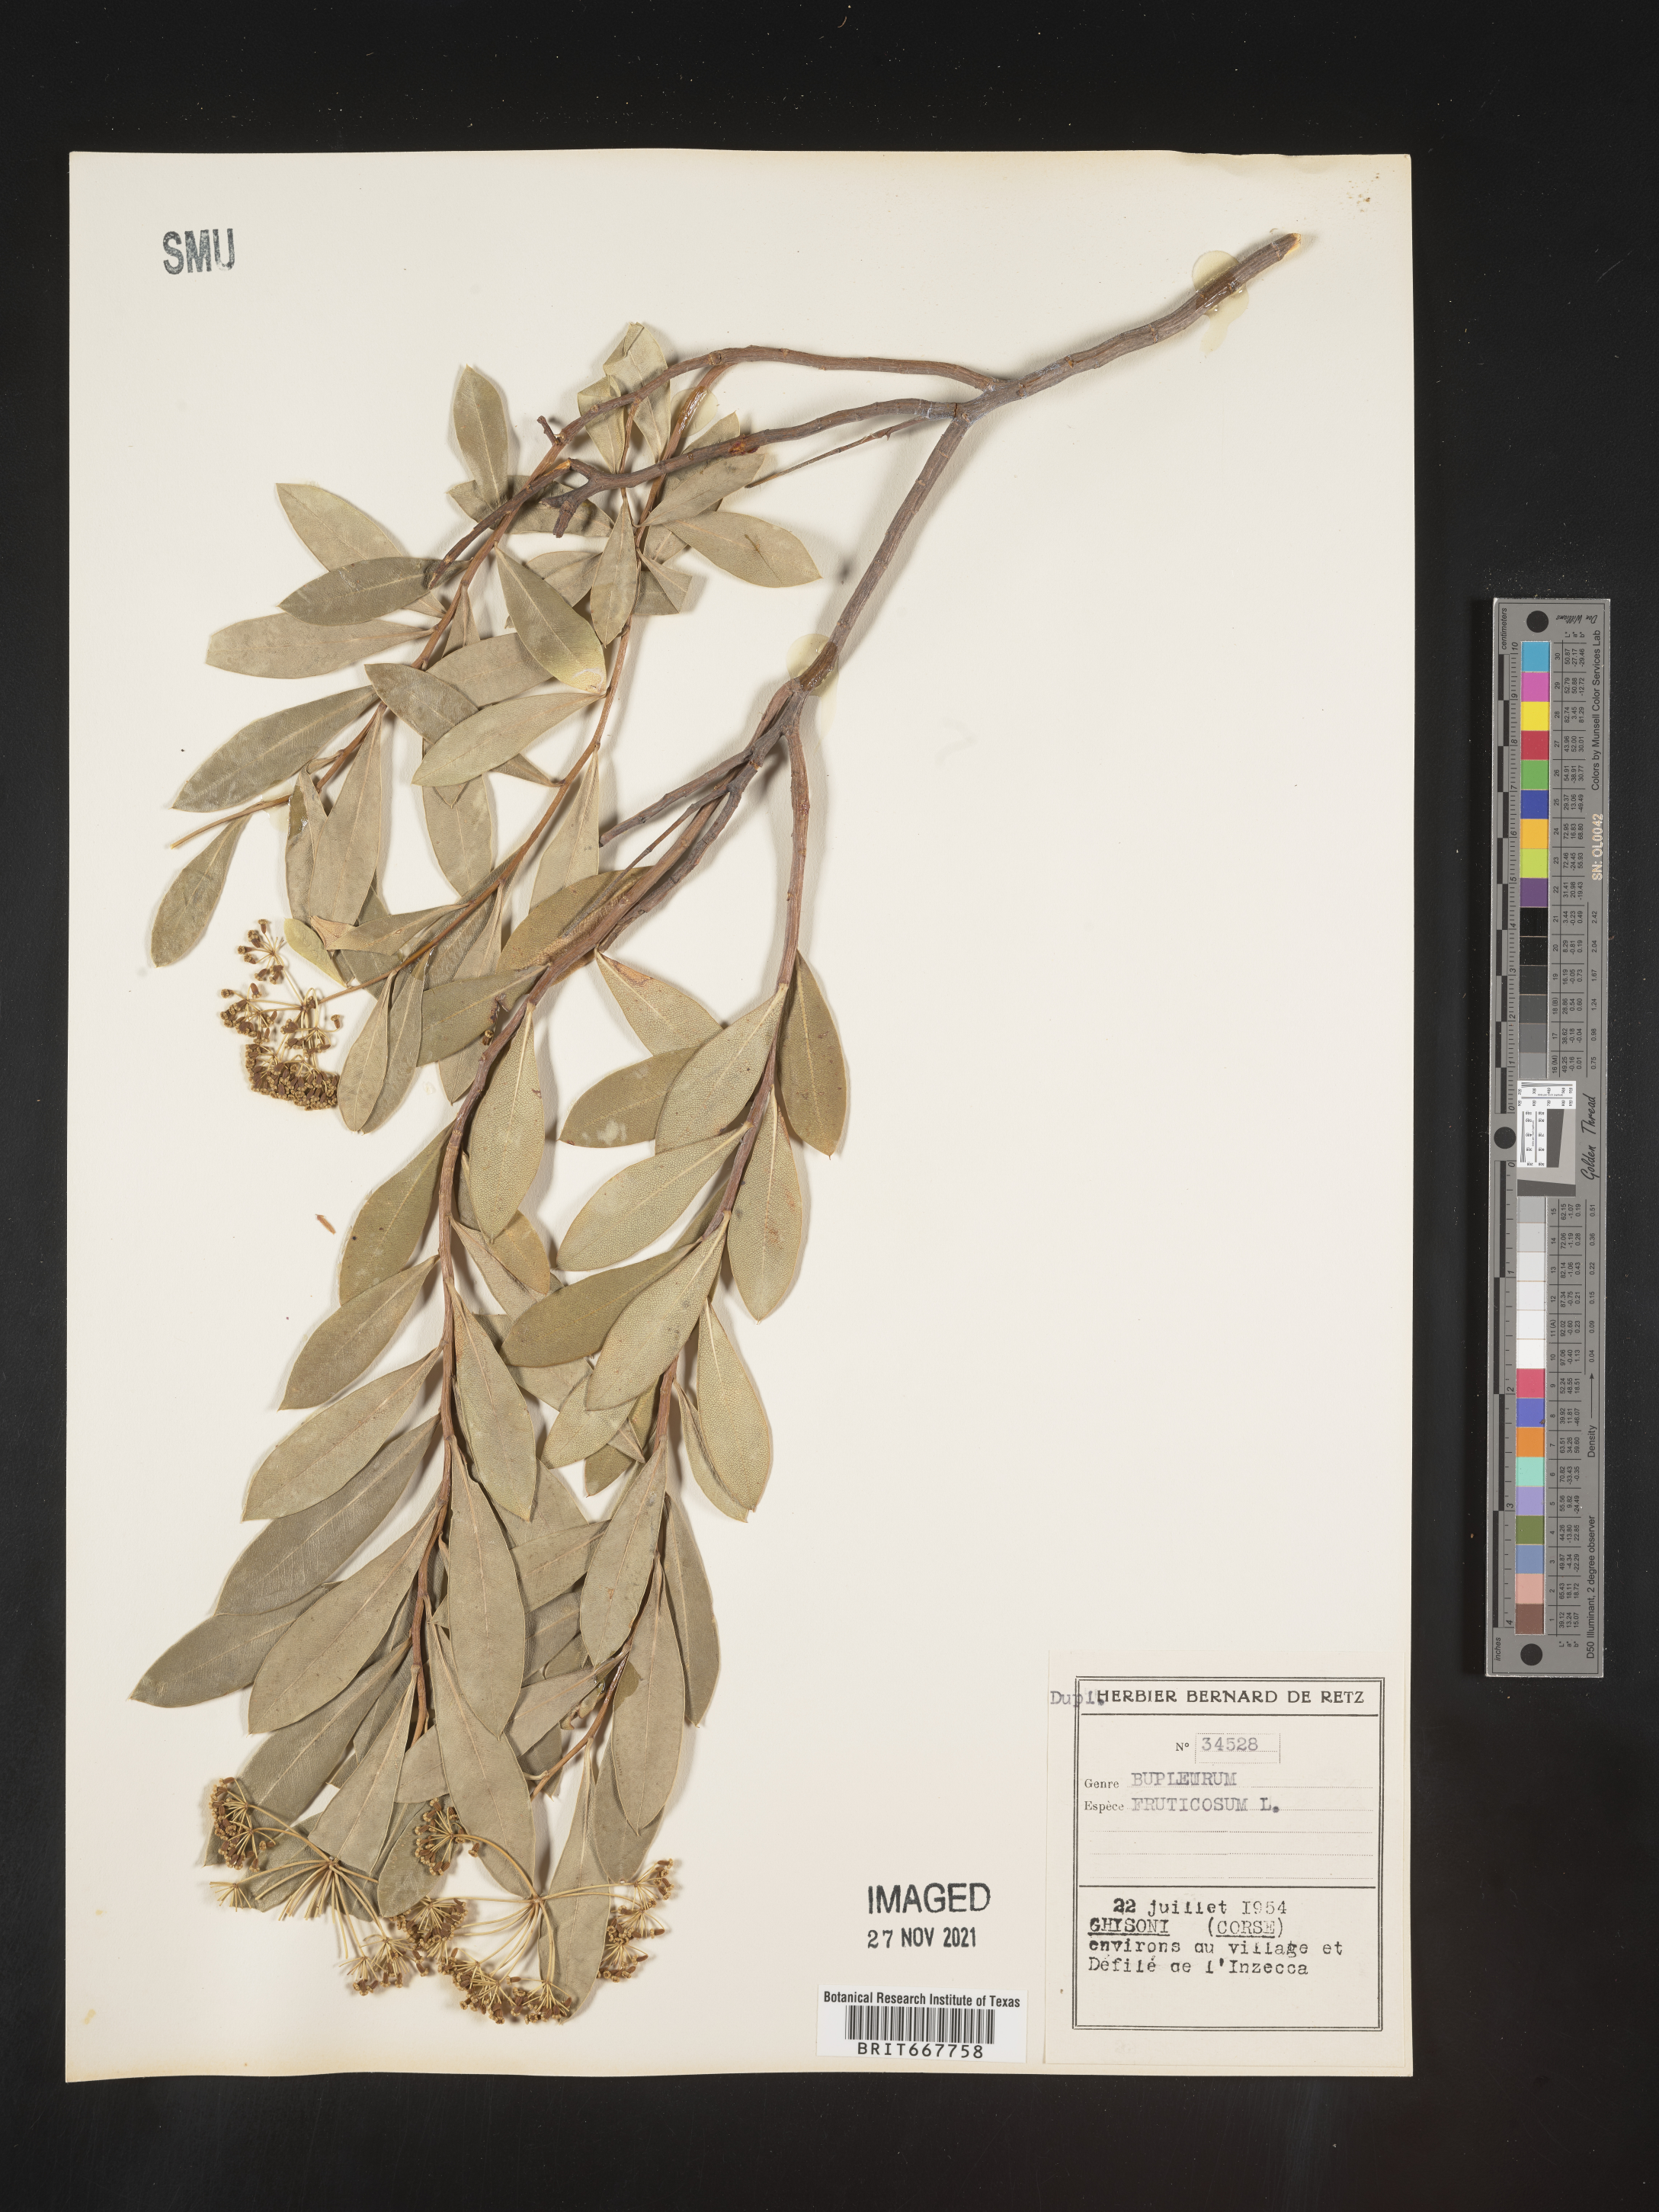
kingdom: Plantae
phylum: Tracheophyta
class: Magnoliopsida
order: Apiales
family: Apiaceae
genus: Bupleurum
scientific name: Bupleurum
